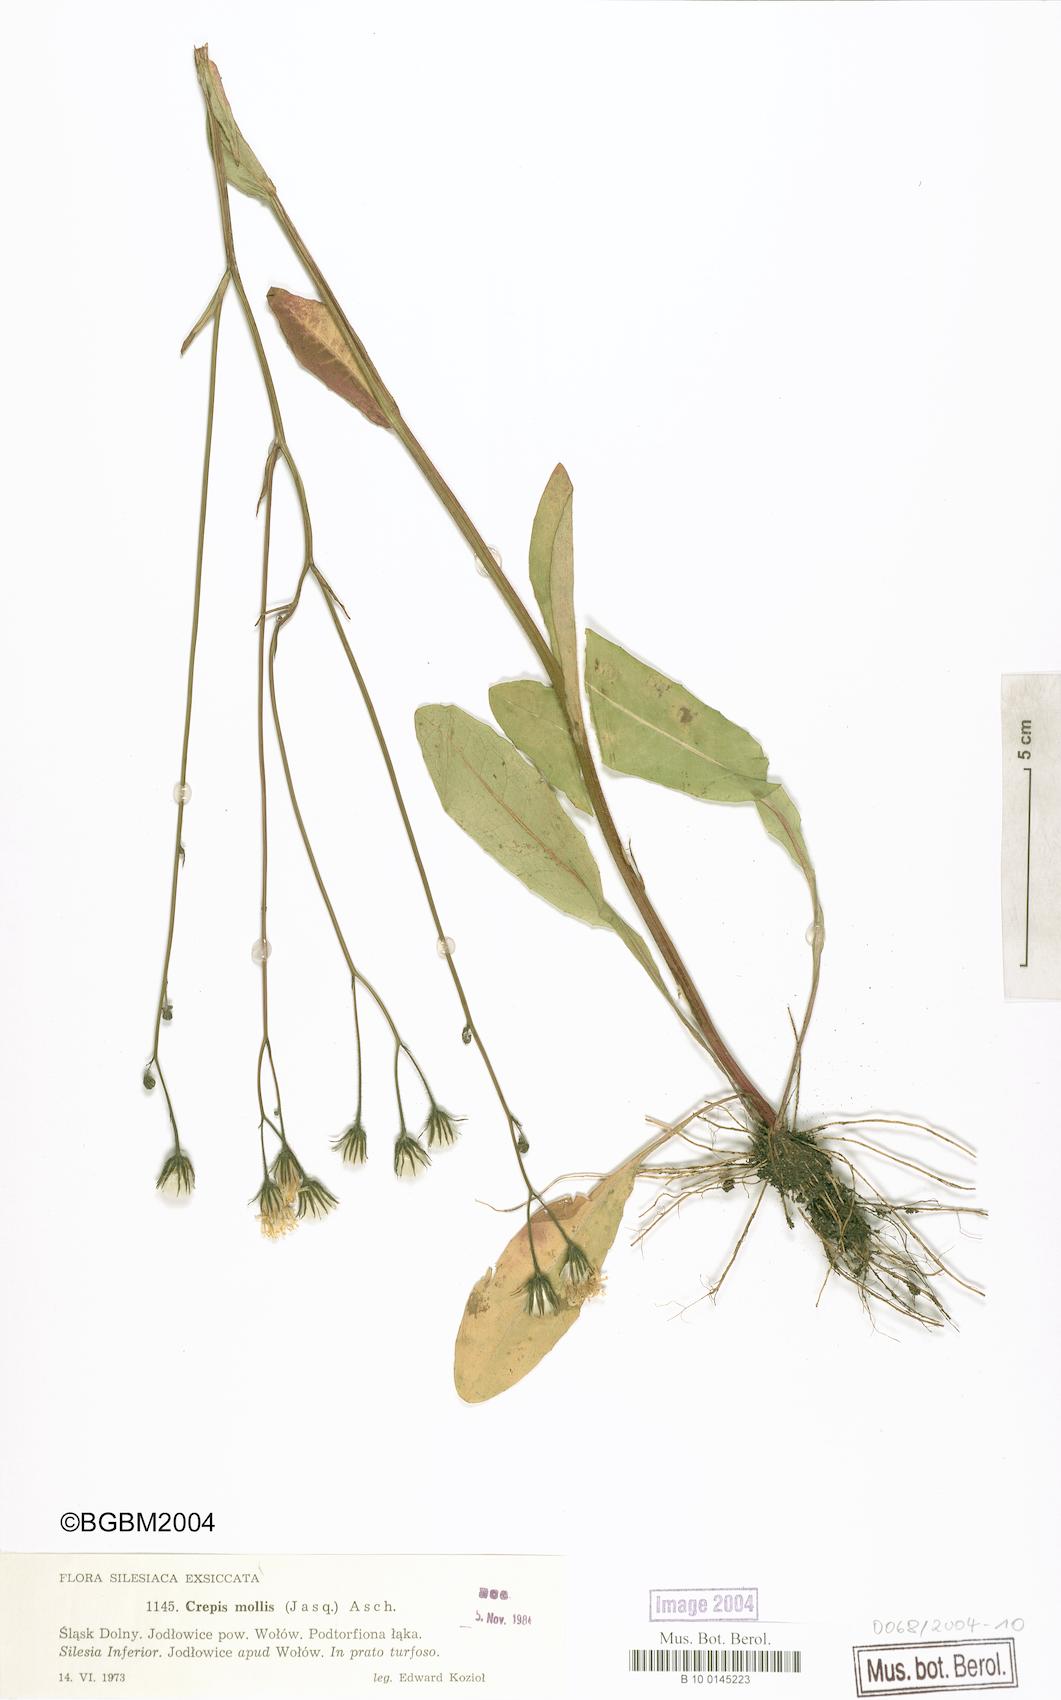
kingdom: Plantae
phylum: Tracheophyta
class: Magnoliopsida
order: Asterales
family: Asteraceae
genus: Crepis
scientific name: Crepis mollis
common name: Northern hawk's-beard
